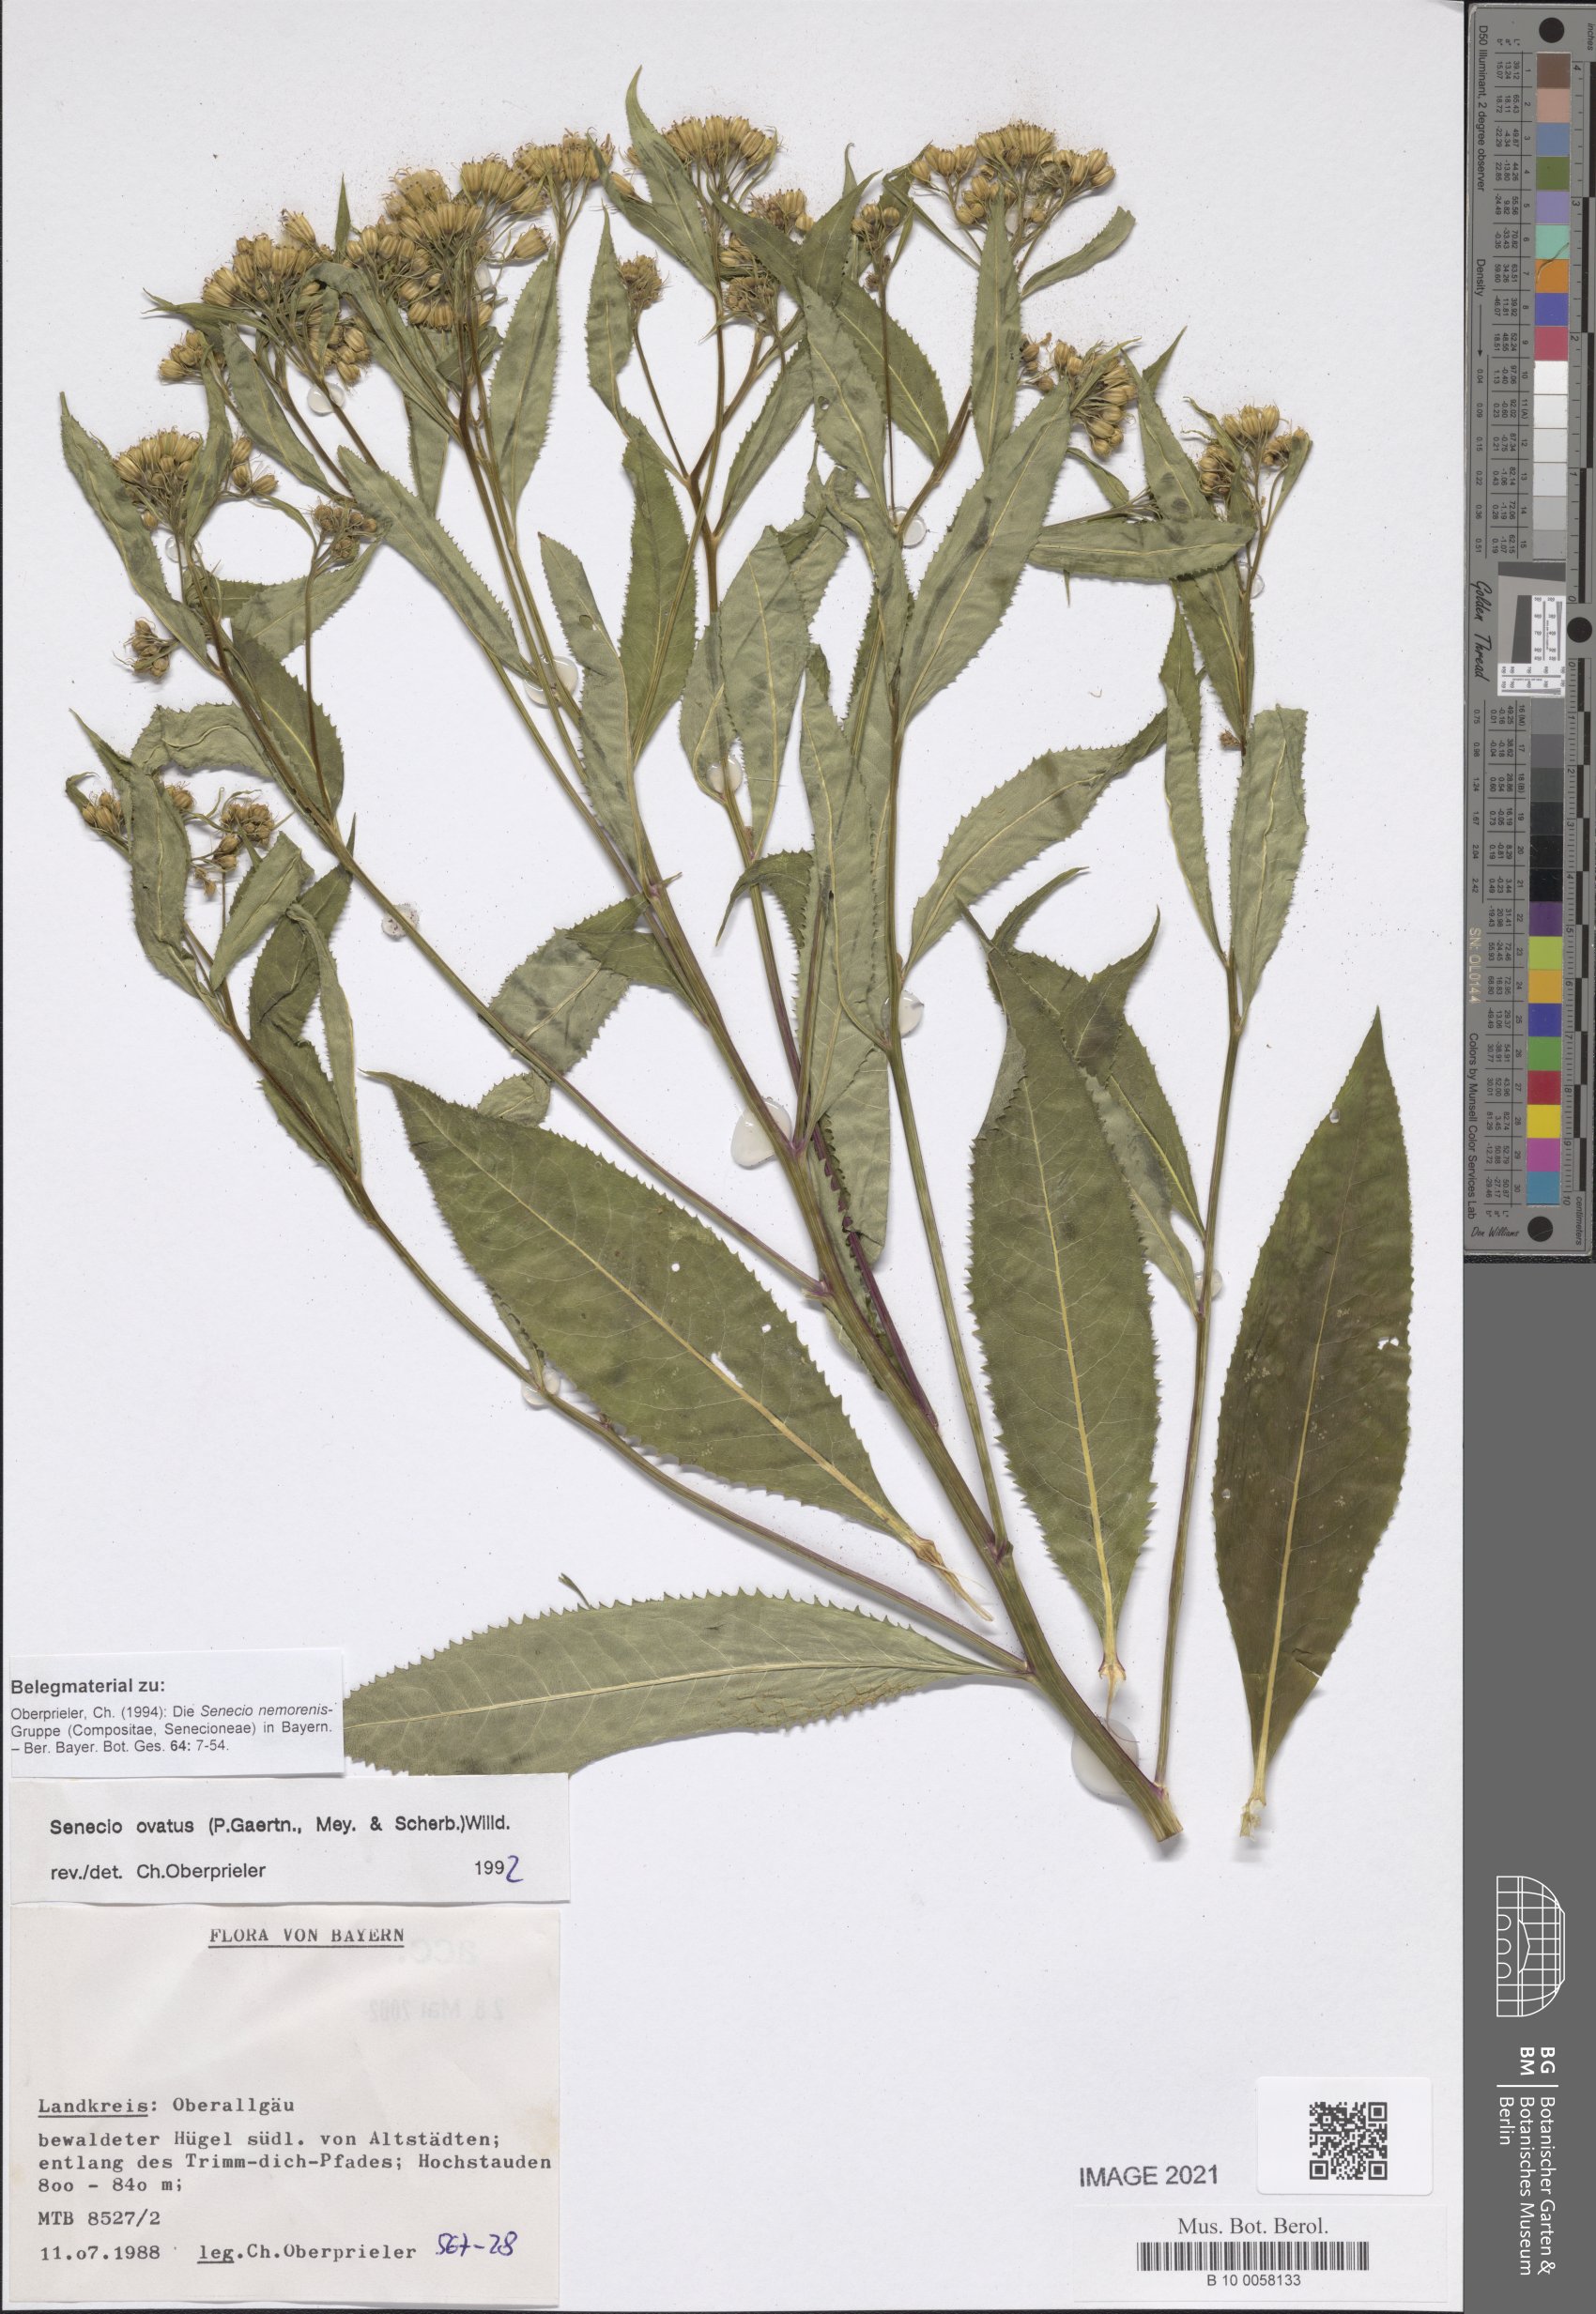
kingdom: Plantae
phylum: Tracheophyta
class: Magnoliopsida
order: Asterales
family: Asteraceae
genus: Senecio
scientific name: Senecio ovatus
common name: Wood ragwort
